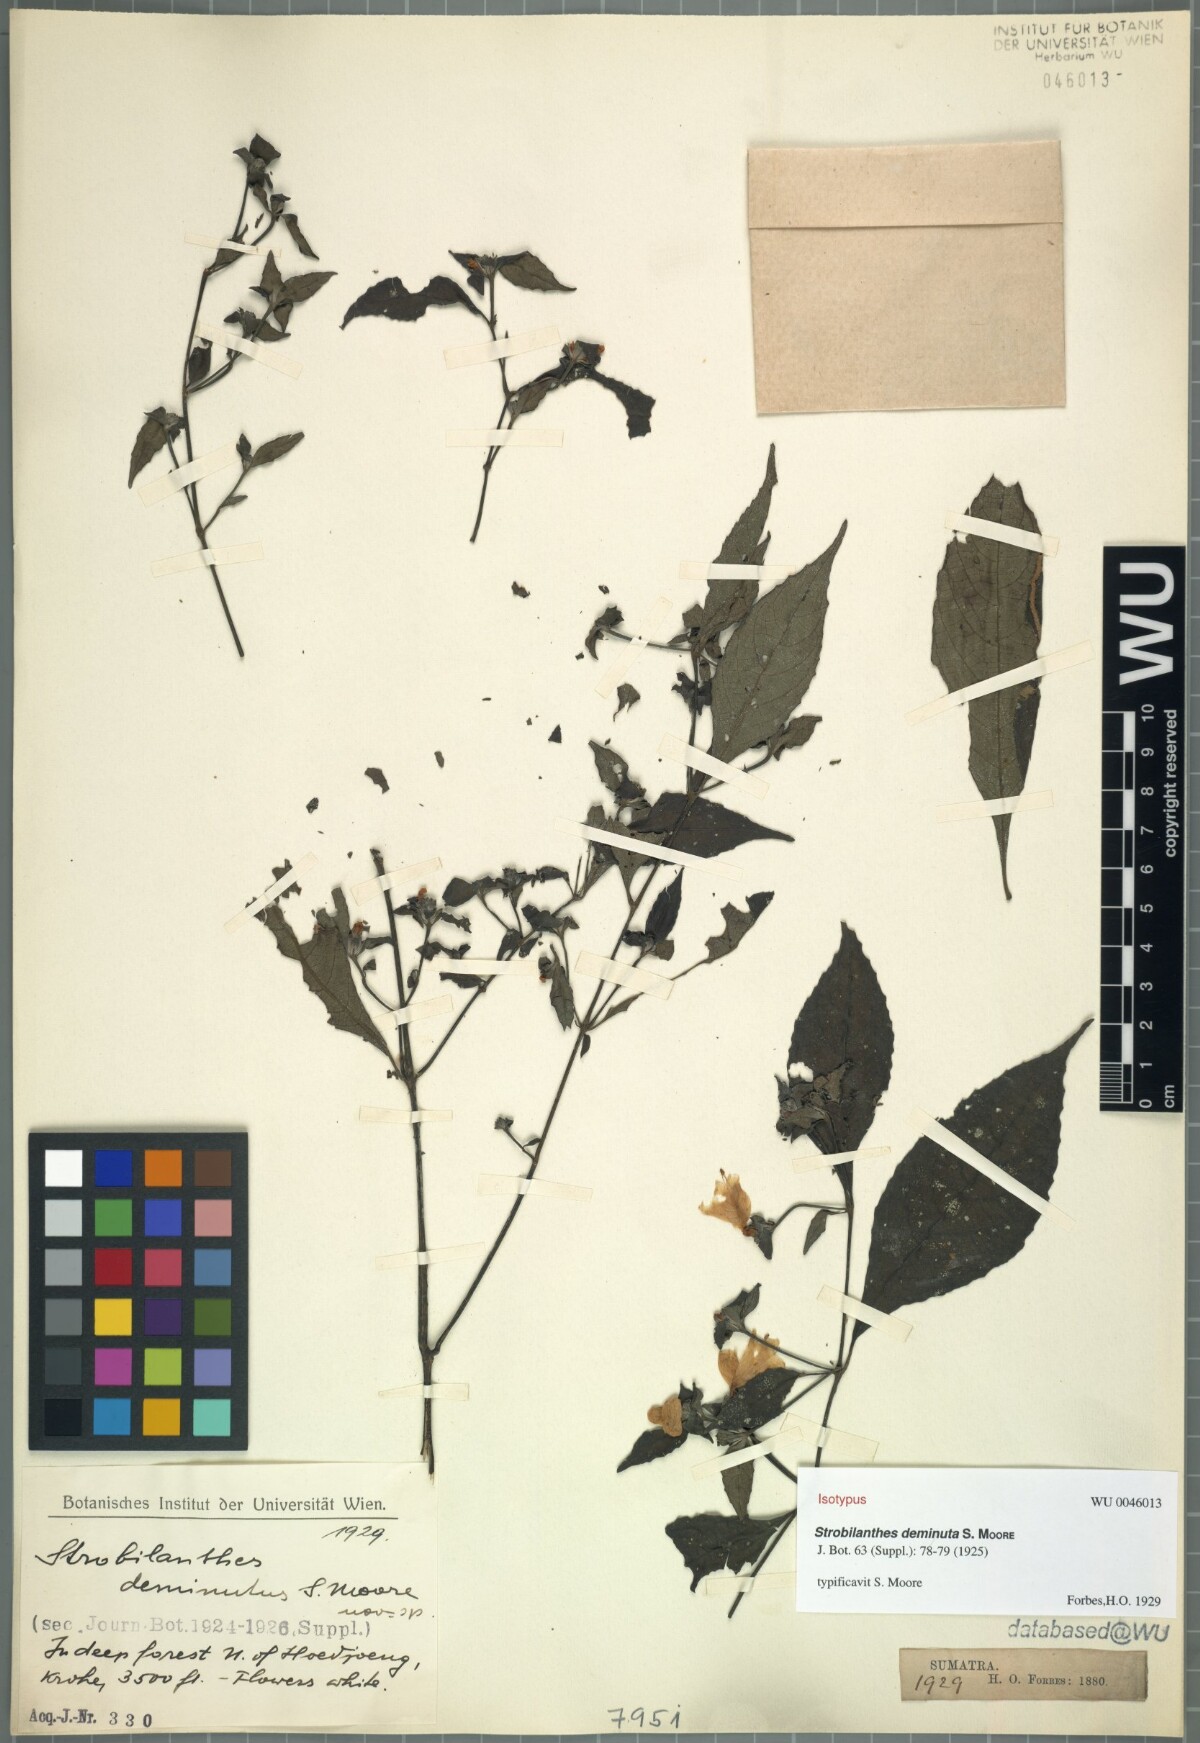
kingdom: Plantae
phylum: Tracheophyta
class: Magnoliopsida
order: Lamiales
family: Acanthaceae
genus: Strobilanthes
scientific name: Strobilanthes paniculata
